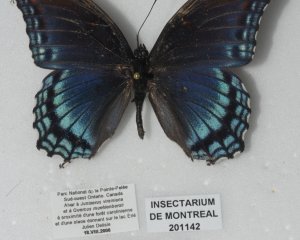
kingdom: Animalia
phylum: Arthropoda
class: Insecta
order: Lepidoptera
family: Nymphalidae
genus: Limenitis
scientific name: Limenitis astyanax
